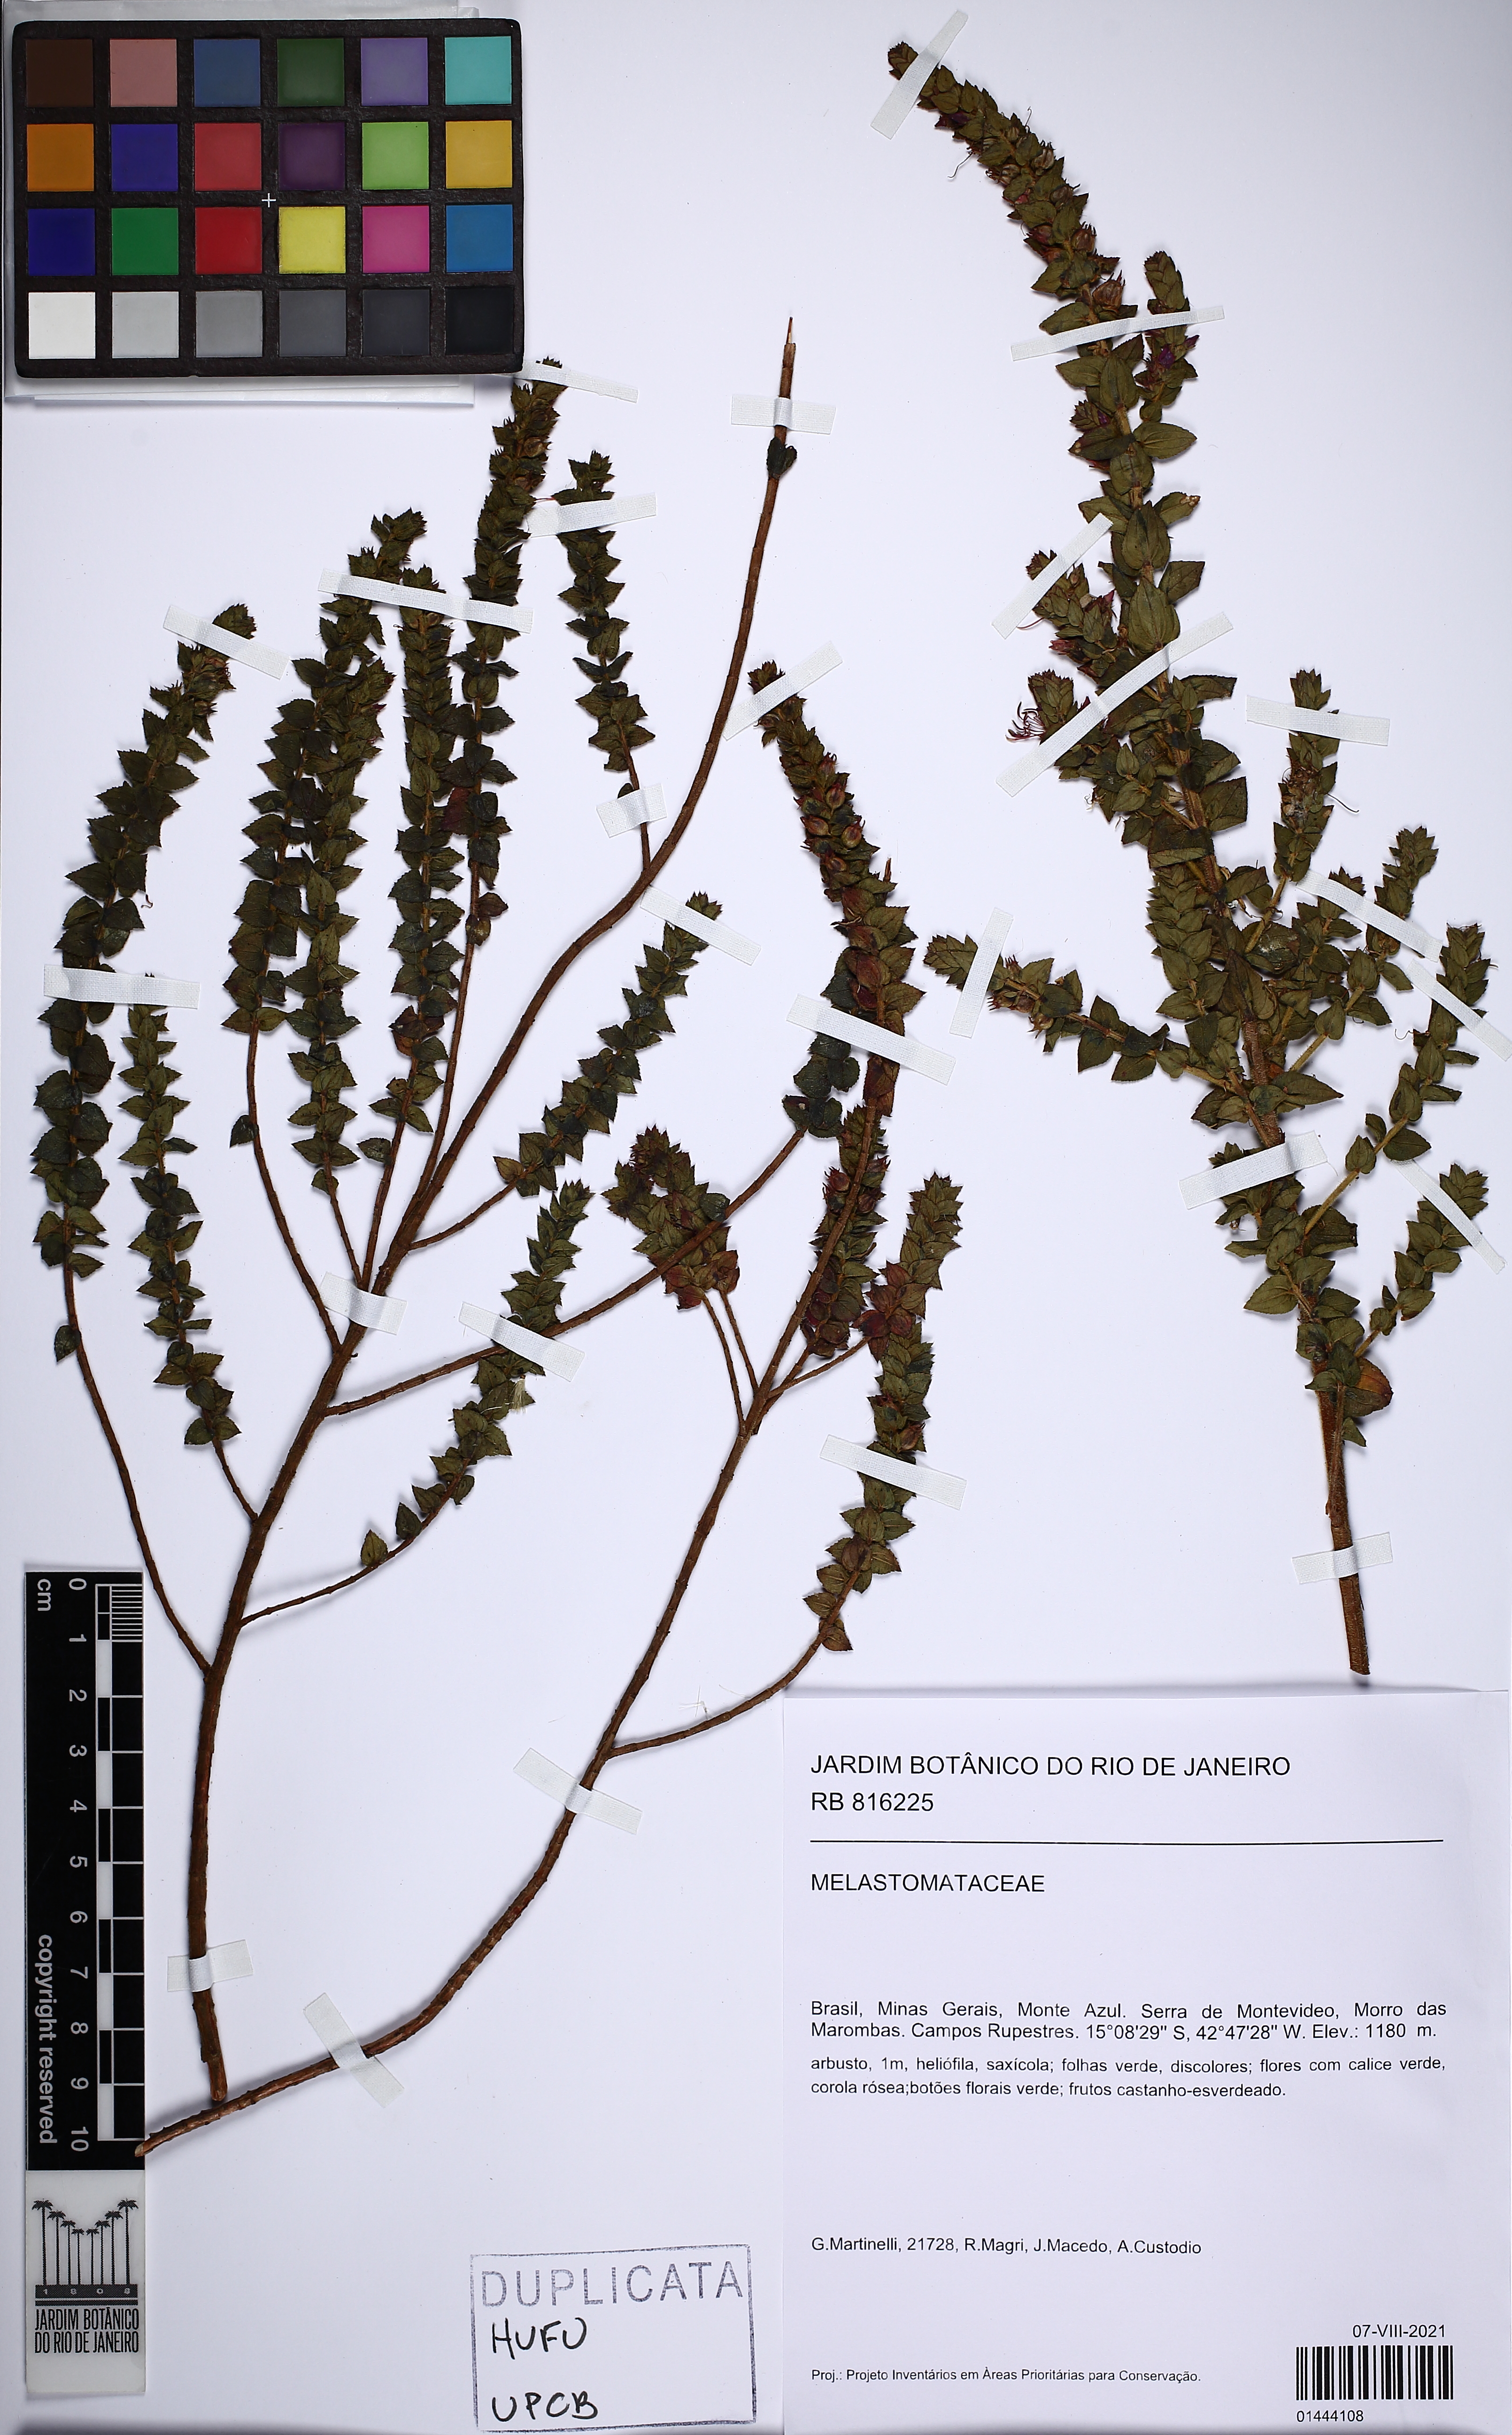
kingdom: Plantae
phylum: Tracheophyta
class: Magnoliopsida
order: Myrtales
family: Melastomataceae
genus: Fritzschia
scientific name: Fritzschia sessilis
